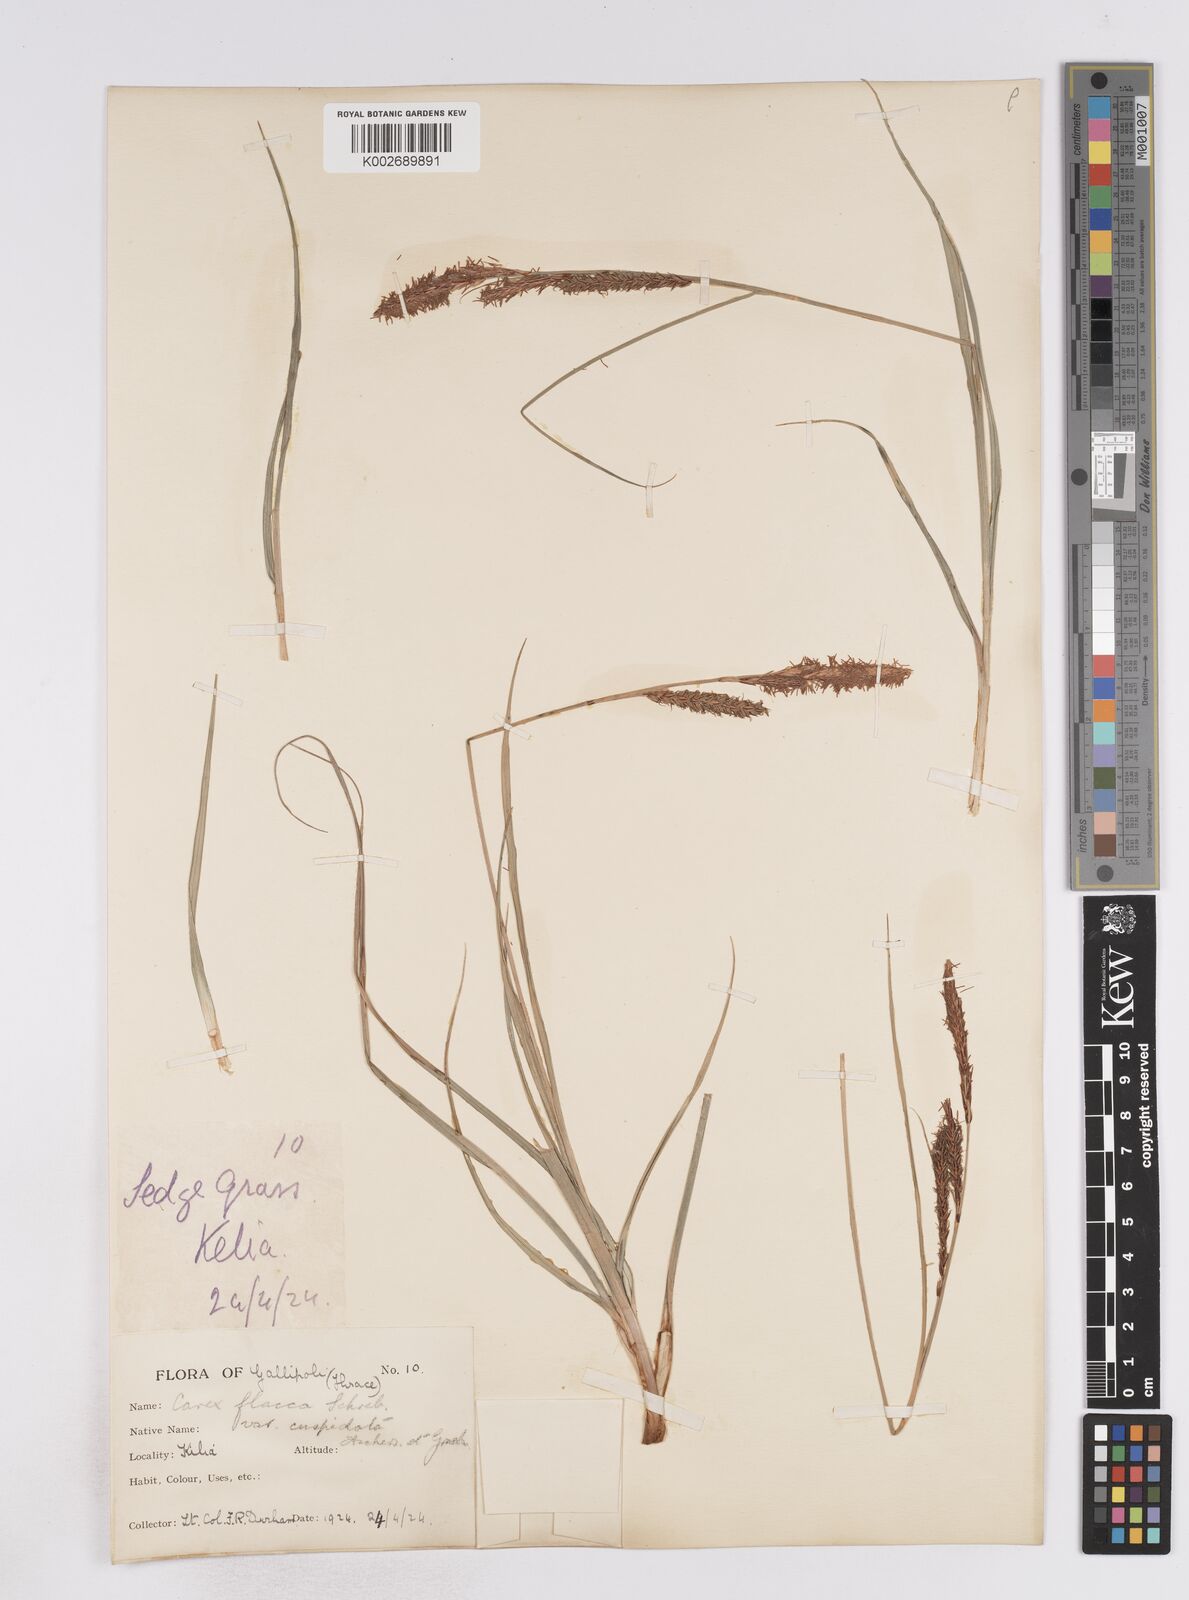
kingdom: Plantae
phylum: Tracheophyta
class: Liliopsida
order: Poales
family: Cyperaceae
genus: Carex
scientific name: Carex flacca
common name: Glaucous sedge
